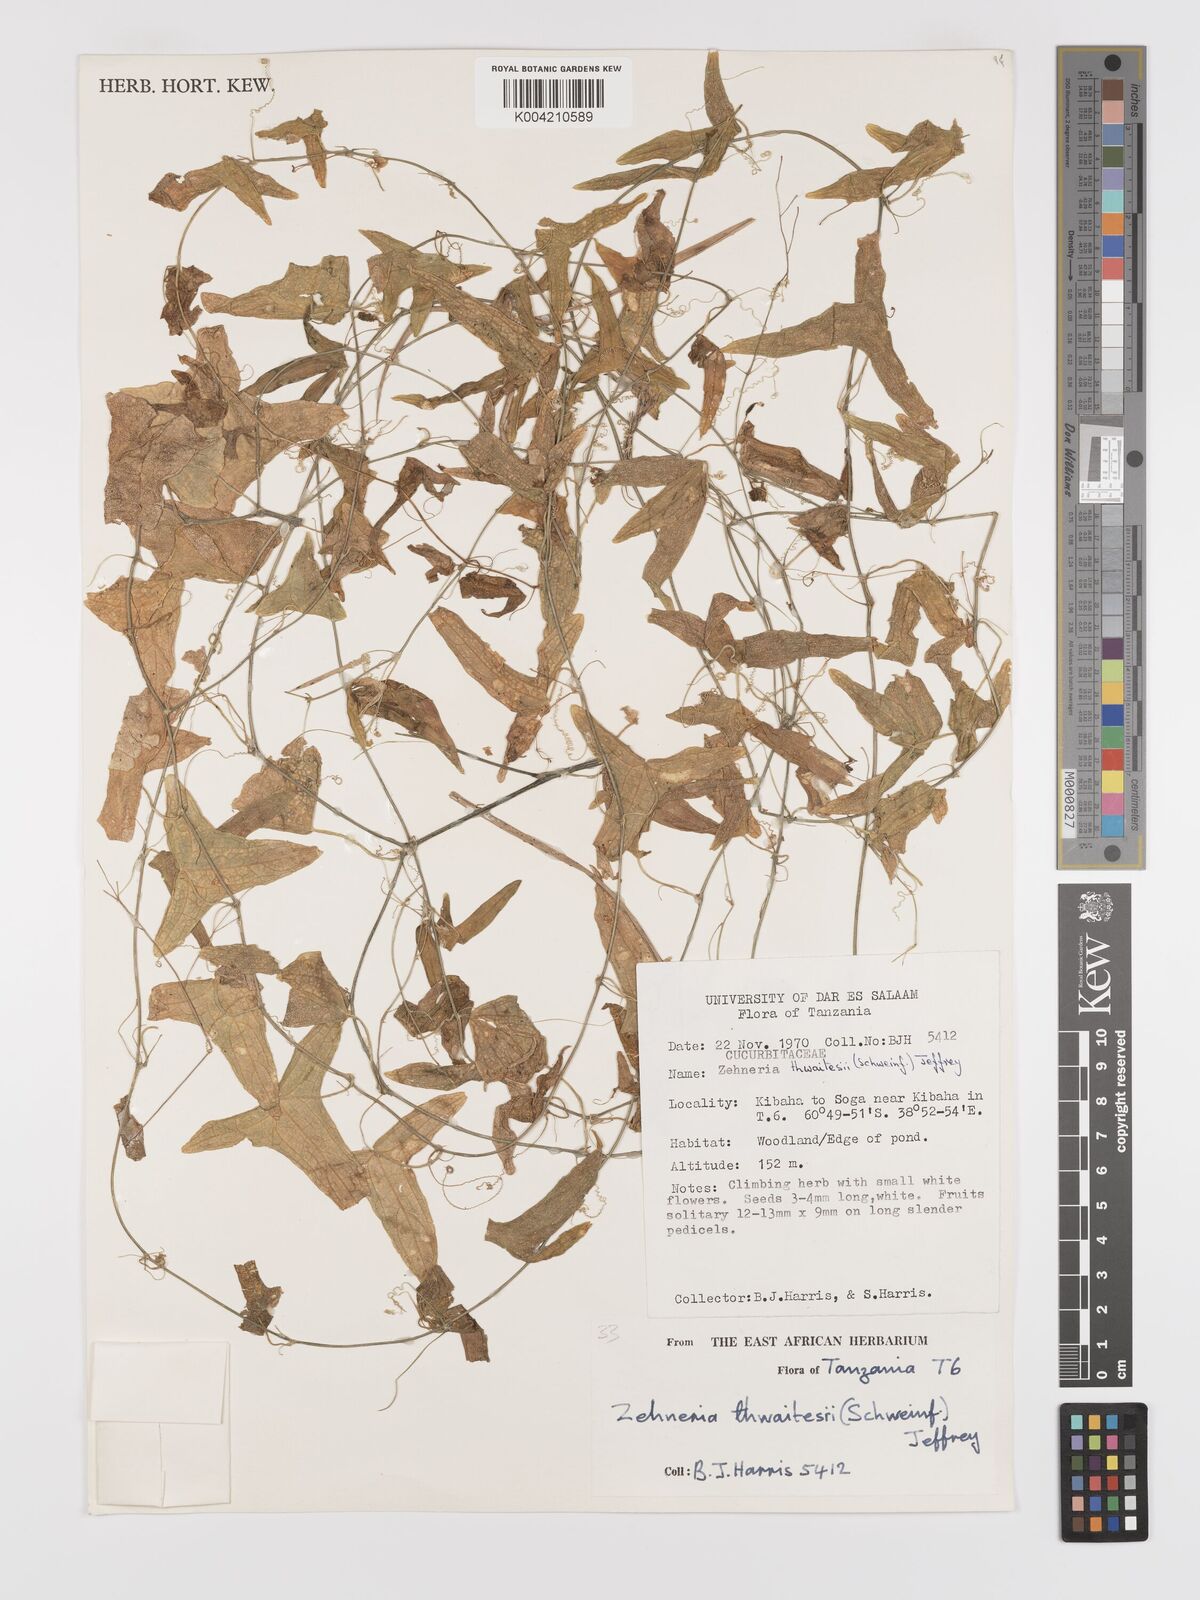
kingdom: Plantae
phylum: Tracheophyta
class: Magnoliopsida
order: Cucurbitales
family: Cucurbitaceae
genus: Zehneria
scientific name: Zehneria thwaitesii
